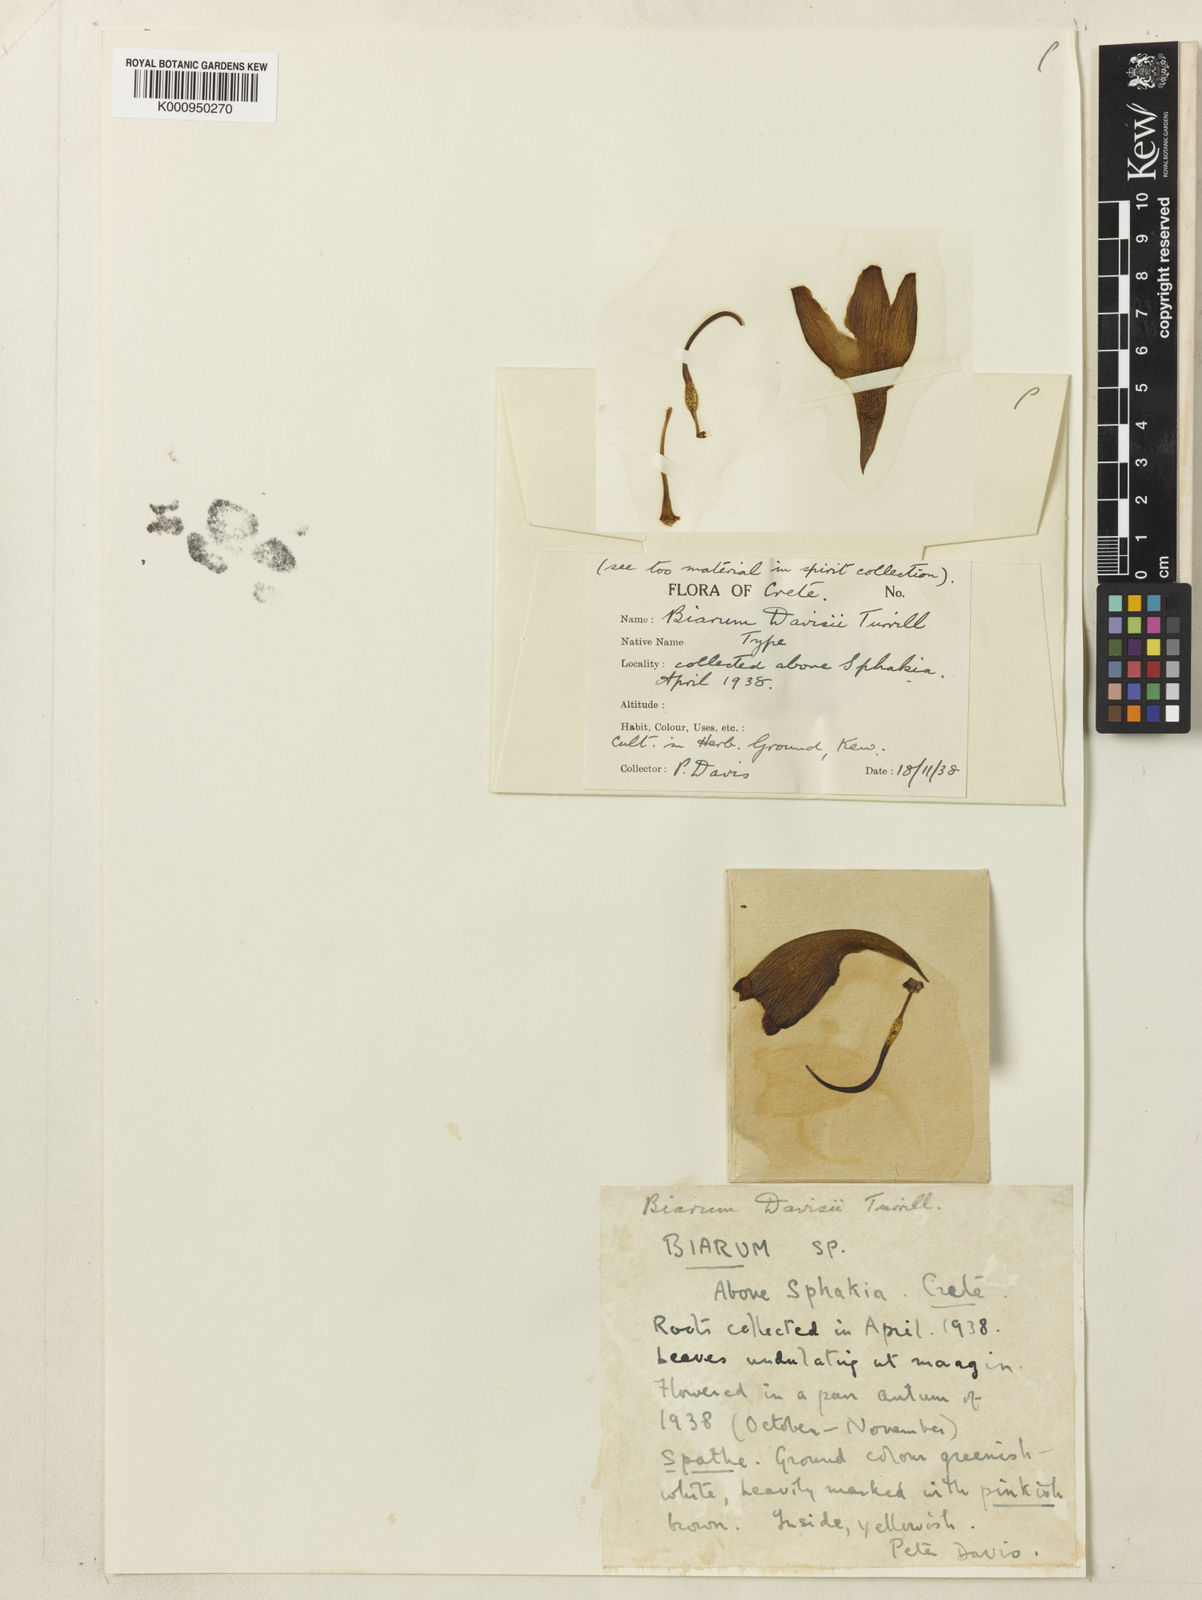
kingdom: Plantae
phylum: Tracheophyta
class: Liliopsida
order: Alismatales
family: Araceae
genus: Biarum
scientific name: Biarum davisii
